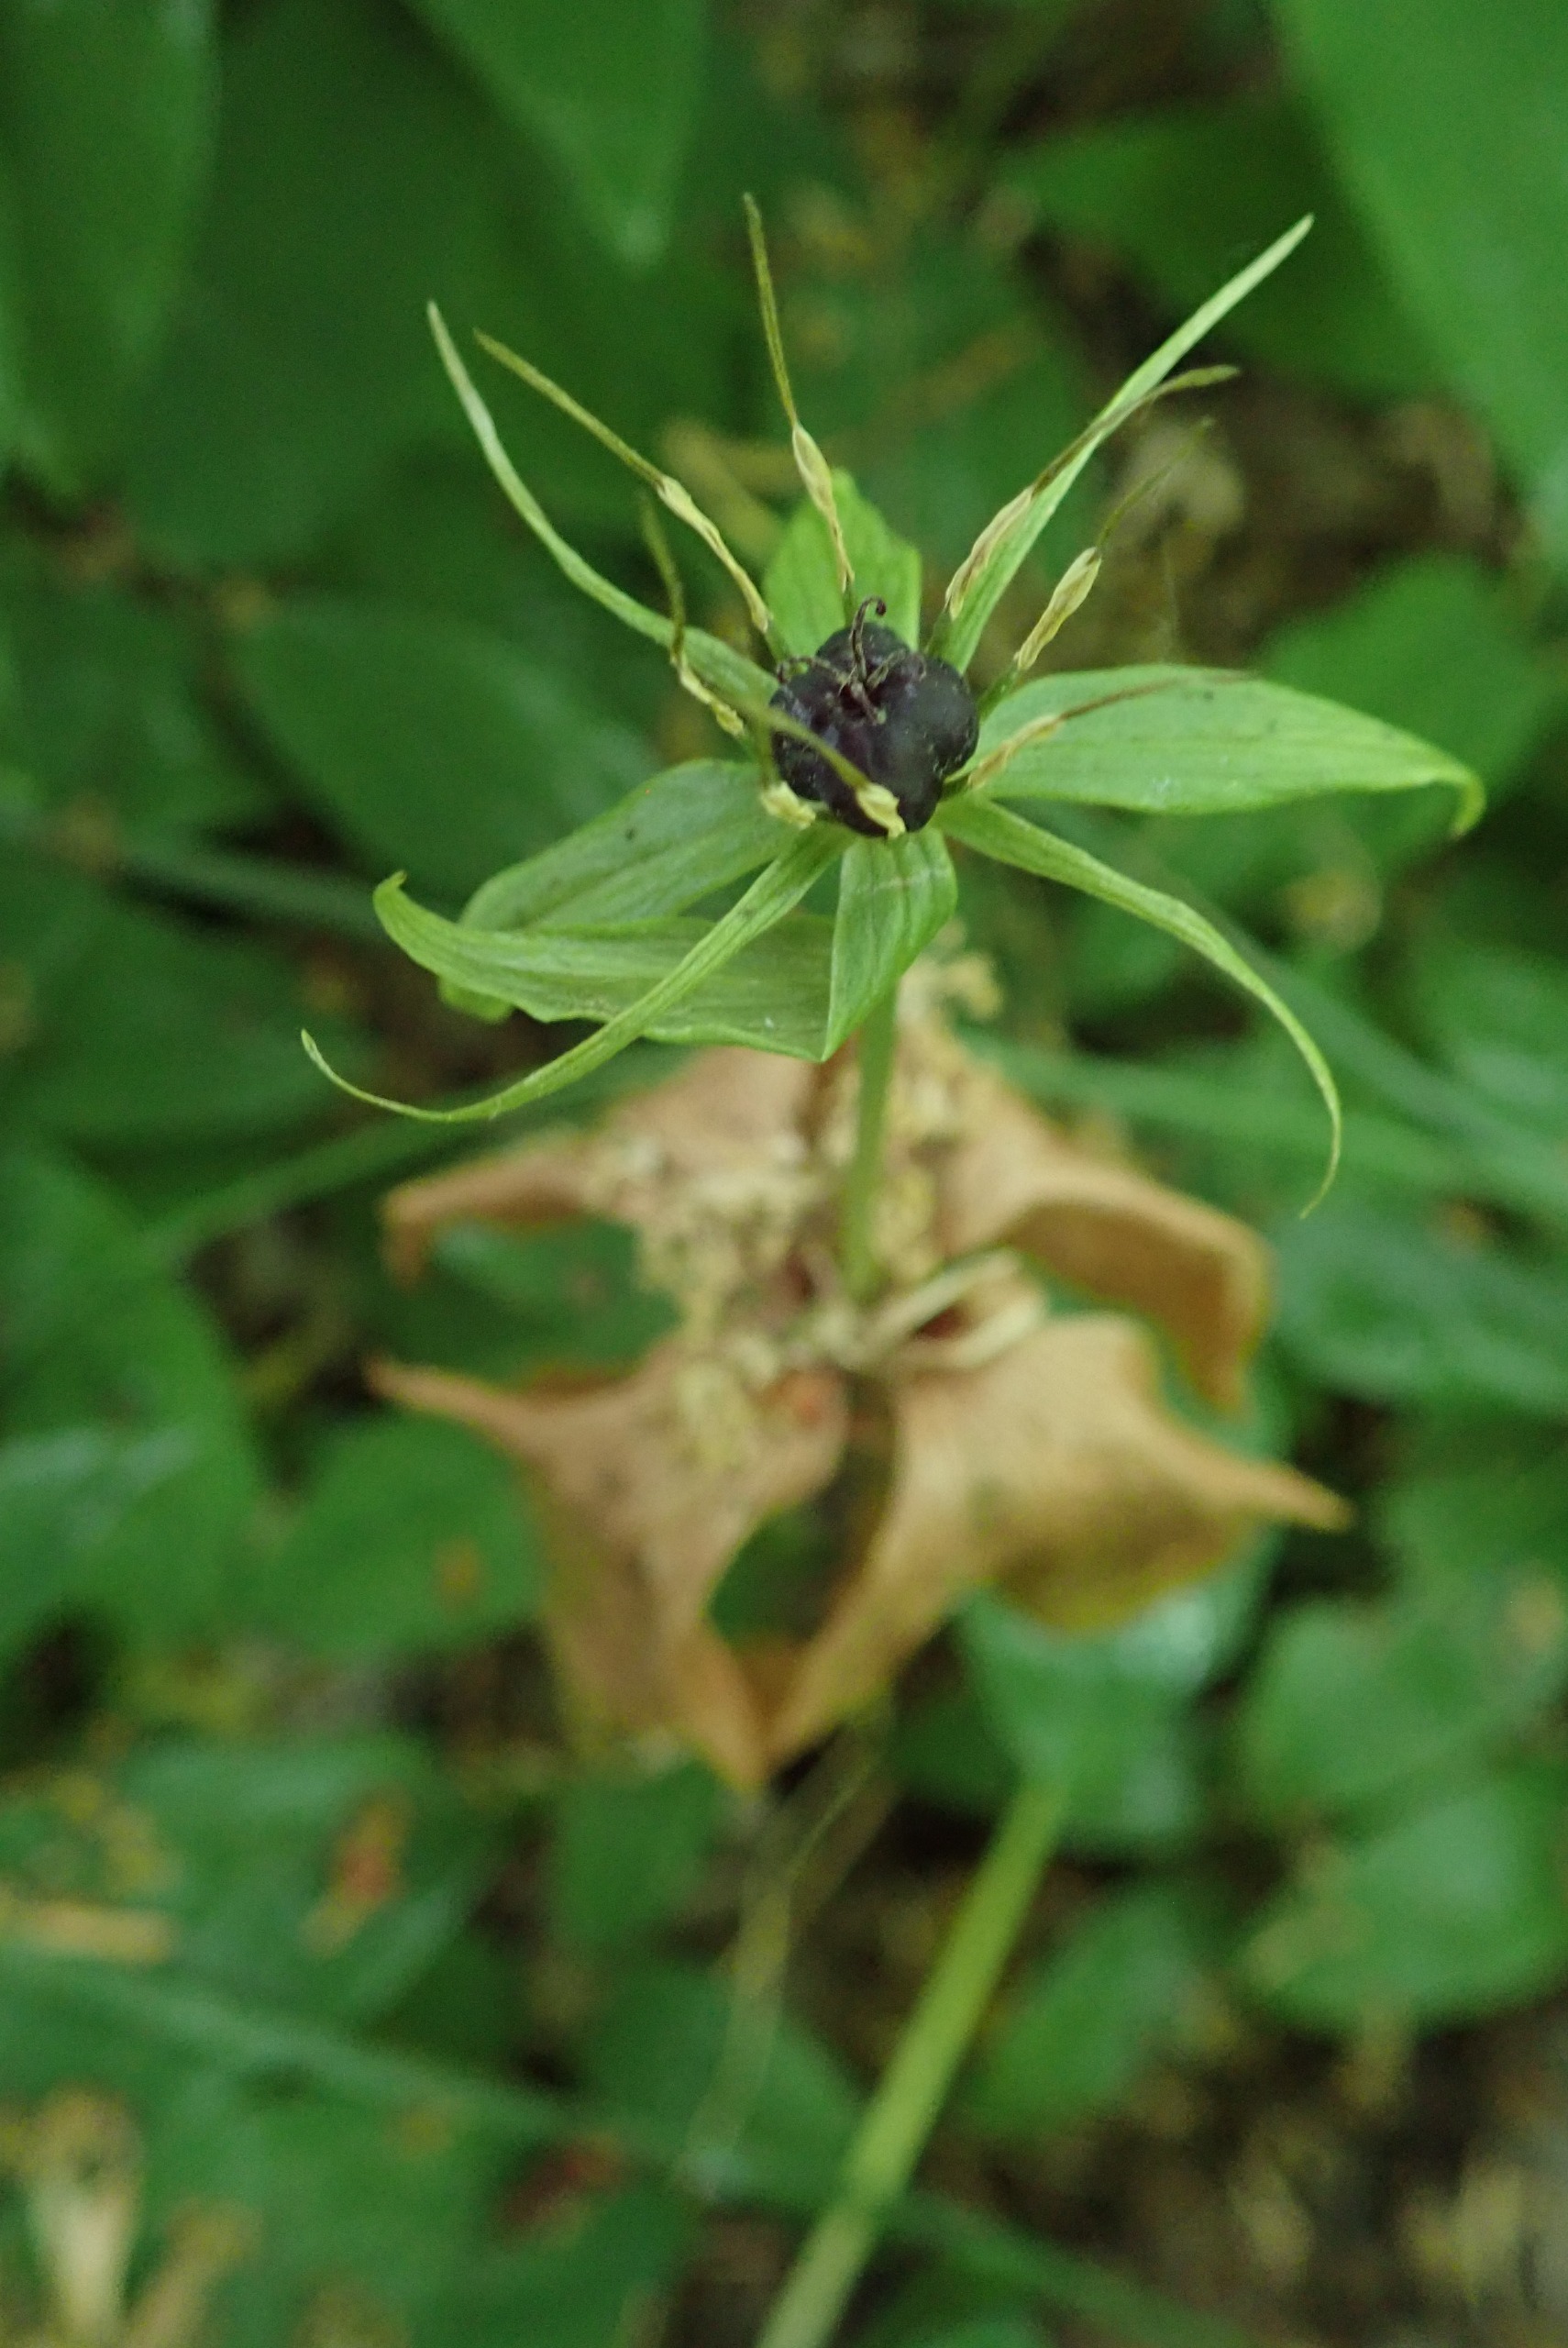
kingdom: Plantae
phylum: Tracheophyta
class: Liliopsida
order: Liliales
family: Melanthiaceae
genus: Paris
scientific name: Paris quadrifolia
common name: Firblad
